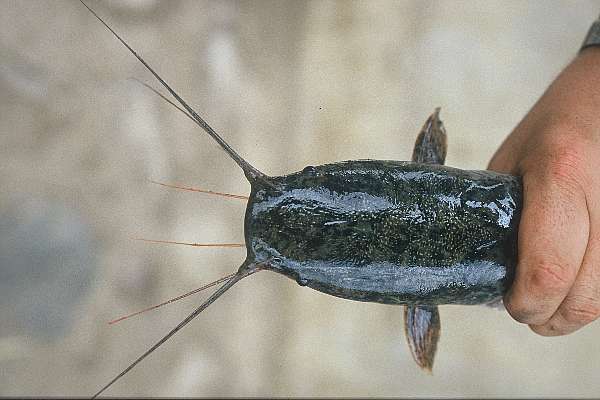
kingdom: Animalia
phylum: Chordata
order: Siluriformes
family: Clariidae
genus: Clarias
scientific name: Clarias gariepinus
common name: African catfish
